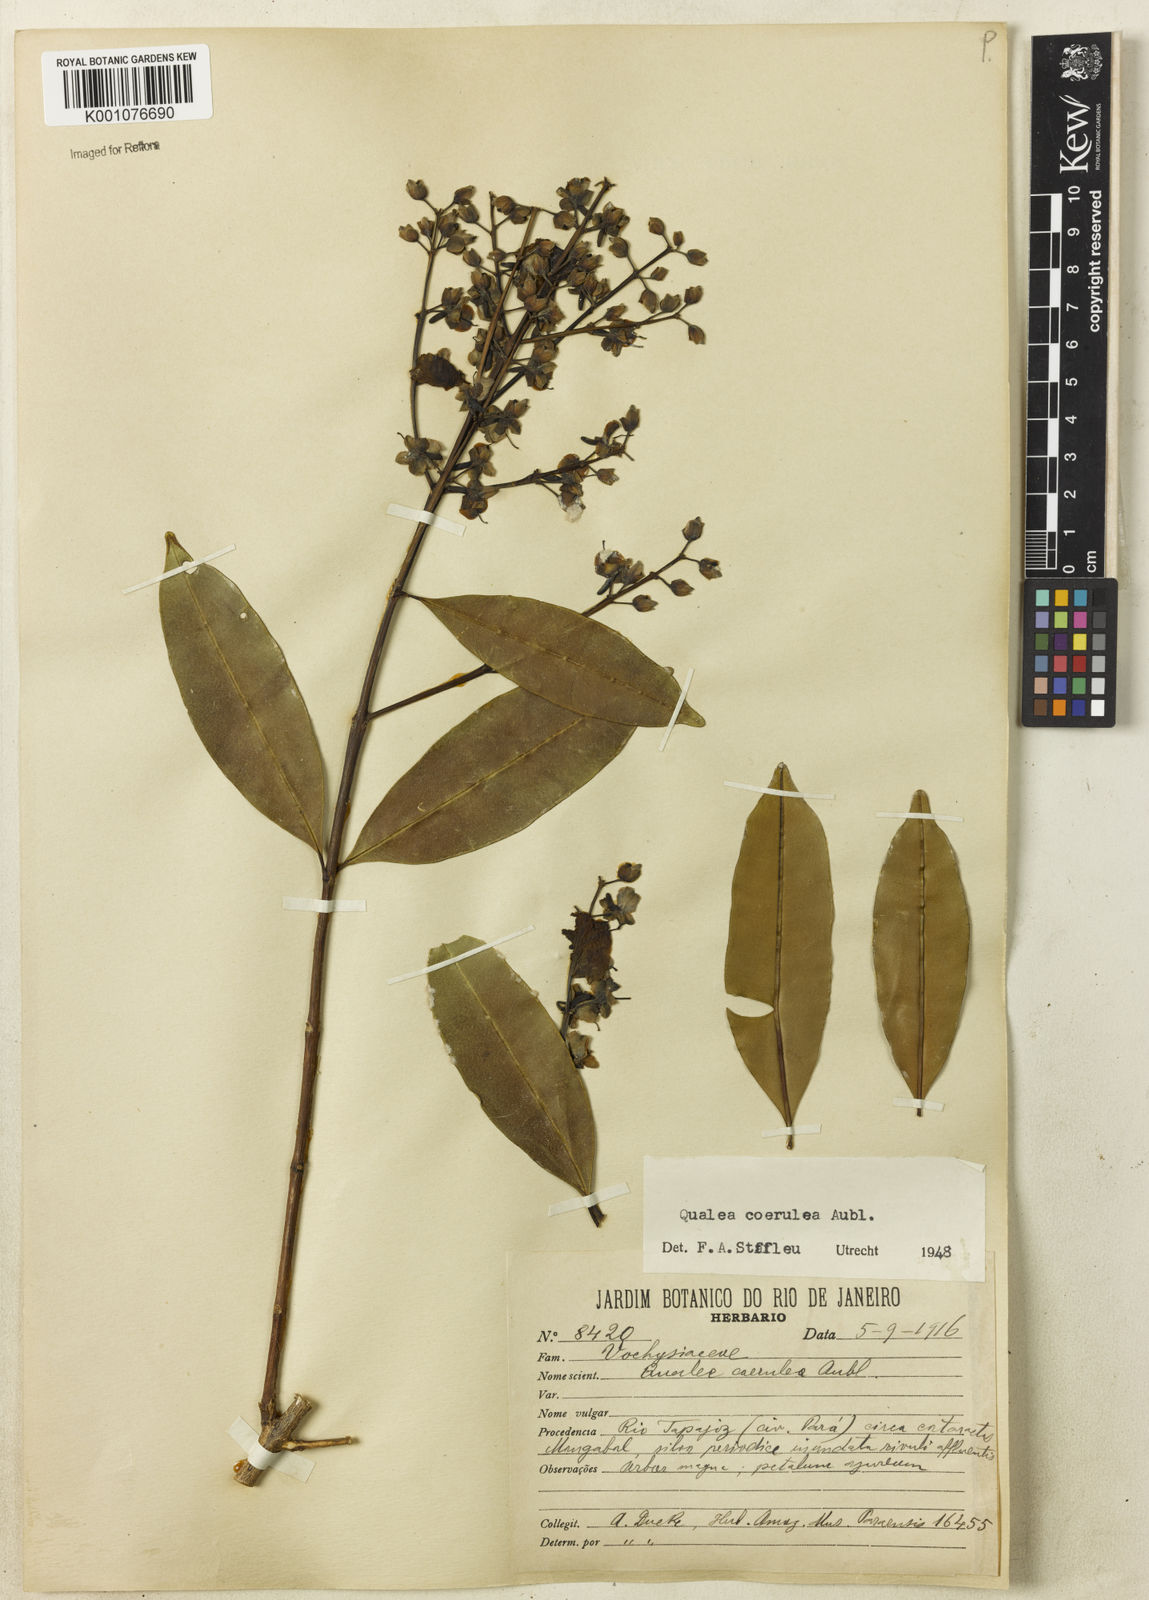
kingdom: Plantae
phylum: Tracheophyta
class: Magnoliopsida
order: Myrtales
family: Vochysiaceae
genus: Qualea
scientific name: Qualea
